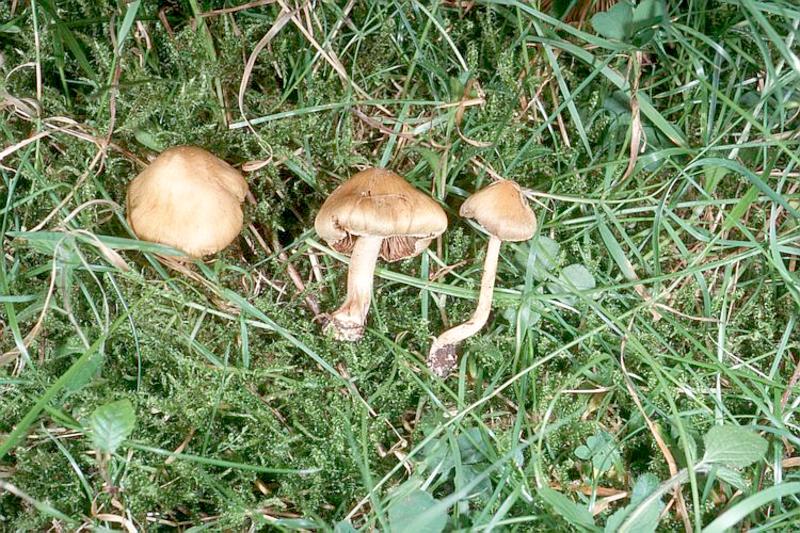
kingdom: Fungi
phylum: Basidiomycota
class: Agaricomycetes
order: Agaricales
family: Inocybaceae
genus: Inosperma
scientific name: Inosperma cookei
